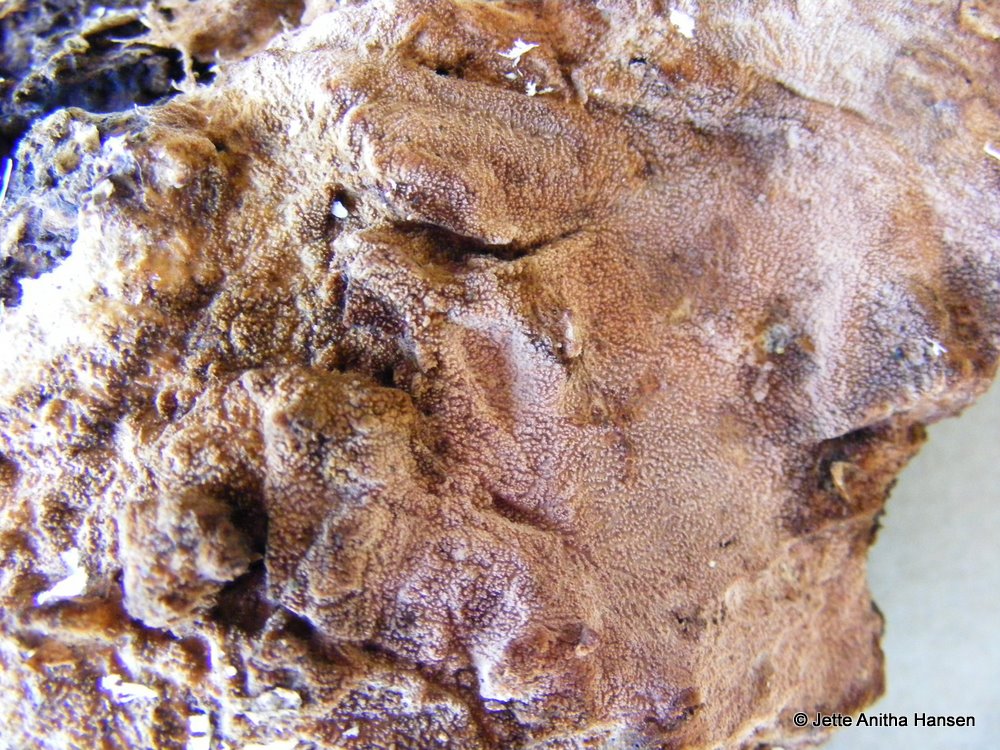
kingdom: Fungi
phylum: Basidiomycota
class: Agaricomycetes
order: Polyporales
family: Steccherinaceae
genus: Steccherinum
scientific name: Steccherinum fimbriatum
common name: trådet skønpig
